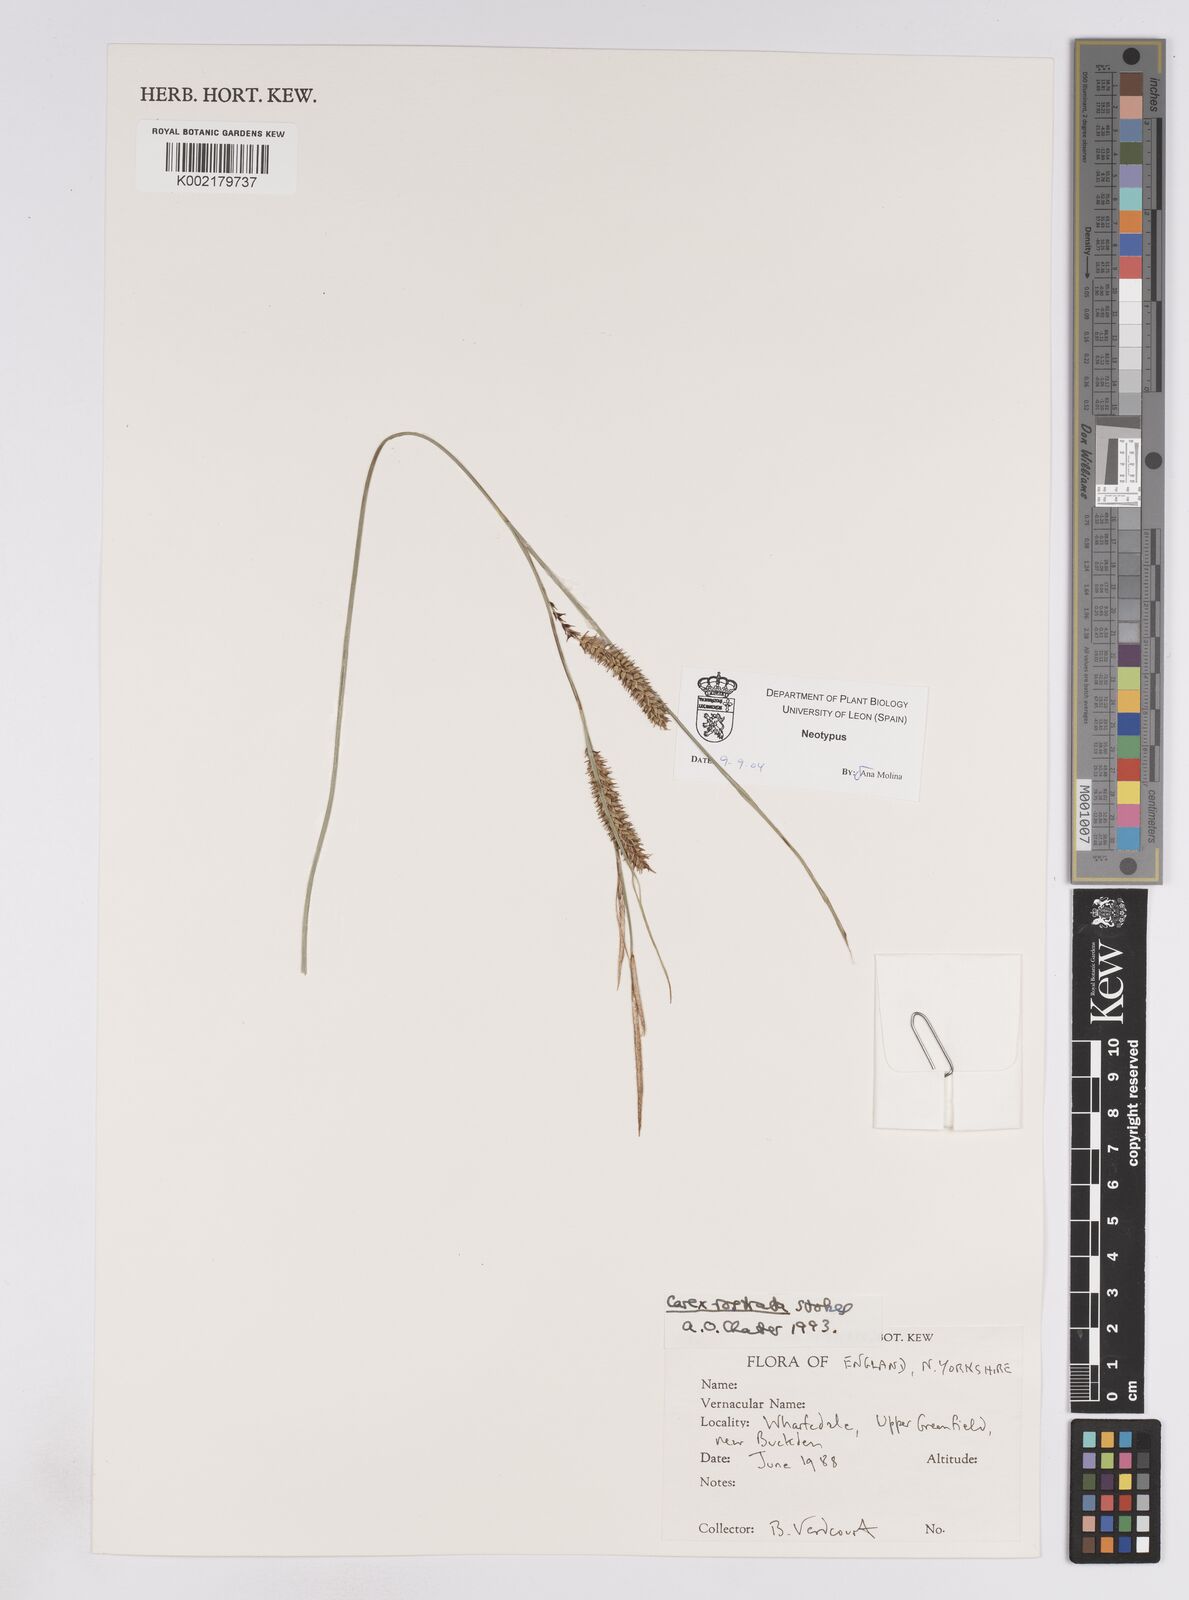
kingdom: Plantae
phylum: Tracheophyta
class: Liliopsida
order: Poales
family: Cyperaceae
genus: Carex
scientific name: Carex rostrata
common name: Bottle sedge
